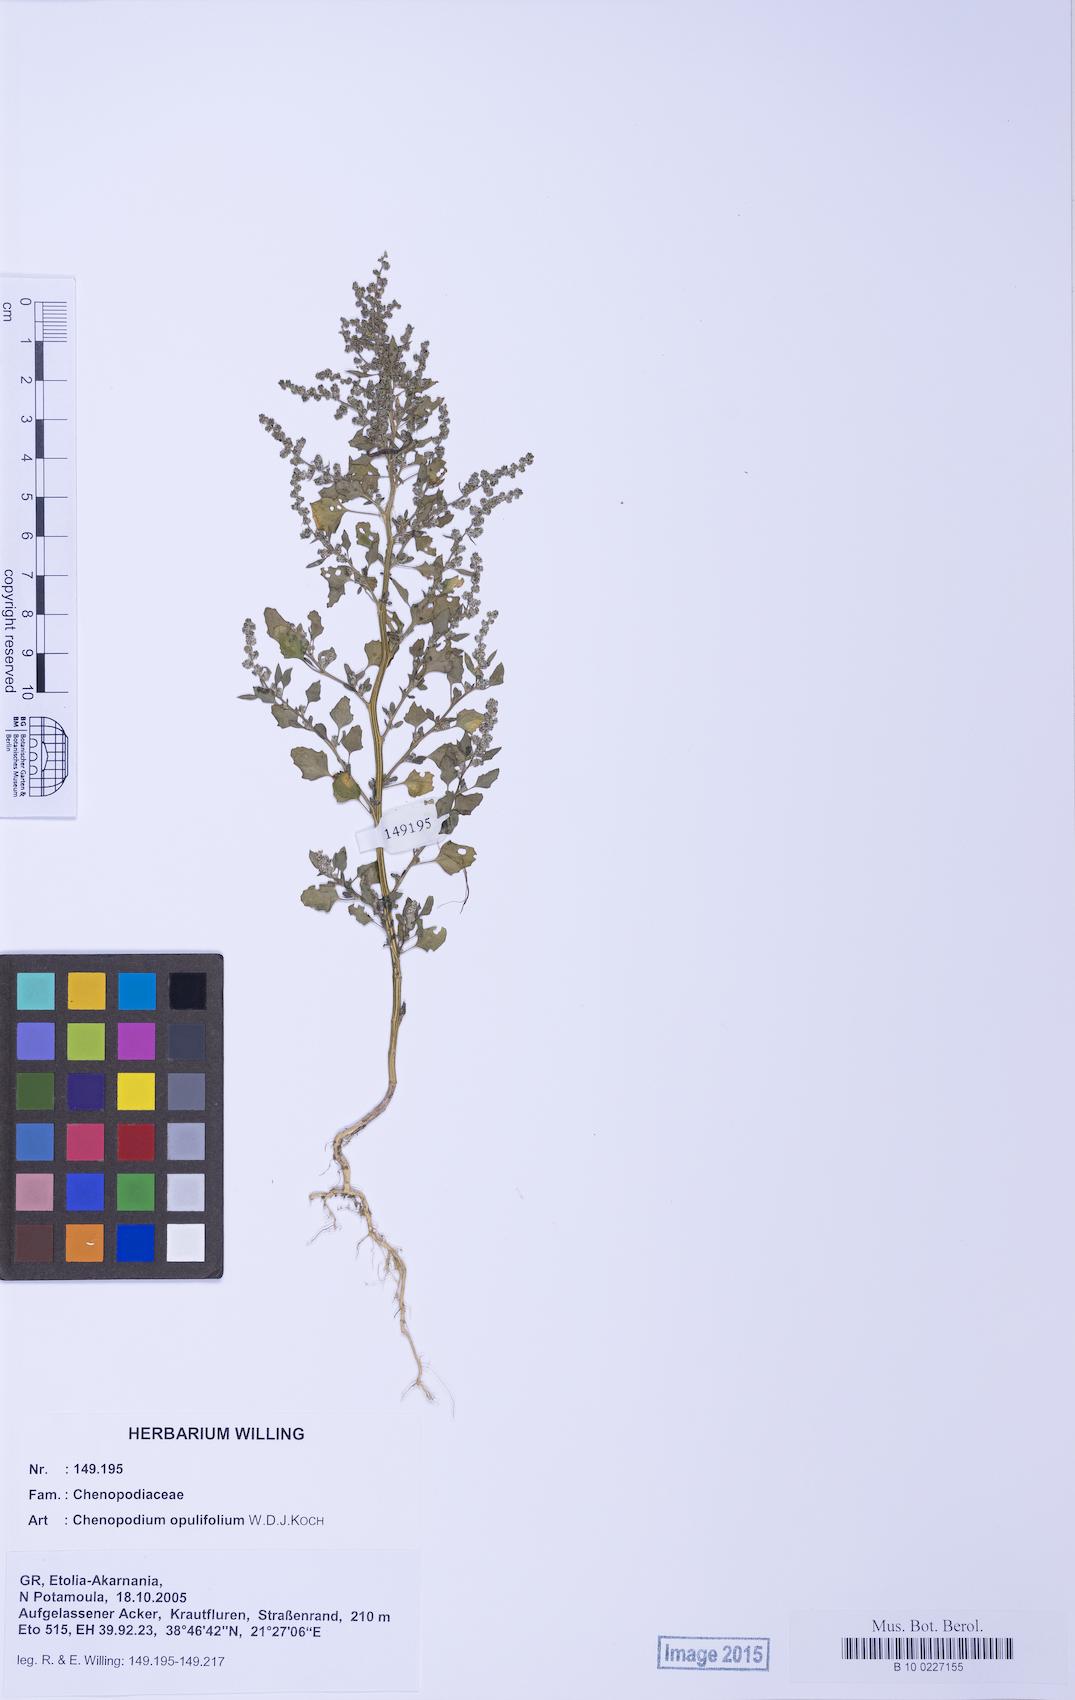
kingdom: Plantae
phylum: Tracheophyta
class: Magnoliopsida
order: Caryophyllales
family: Amaranthaceae
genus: Chenopodium
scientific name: Chenopodium opulifolium
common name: Grey goosefoot
